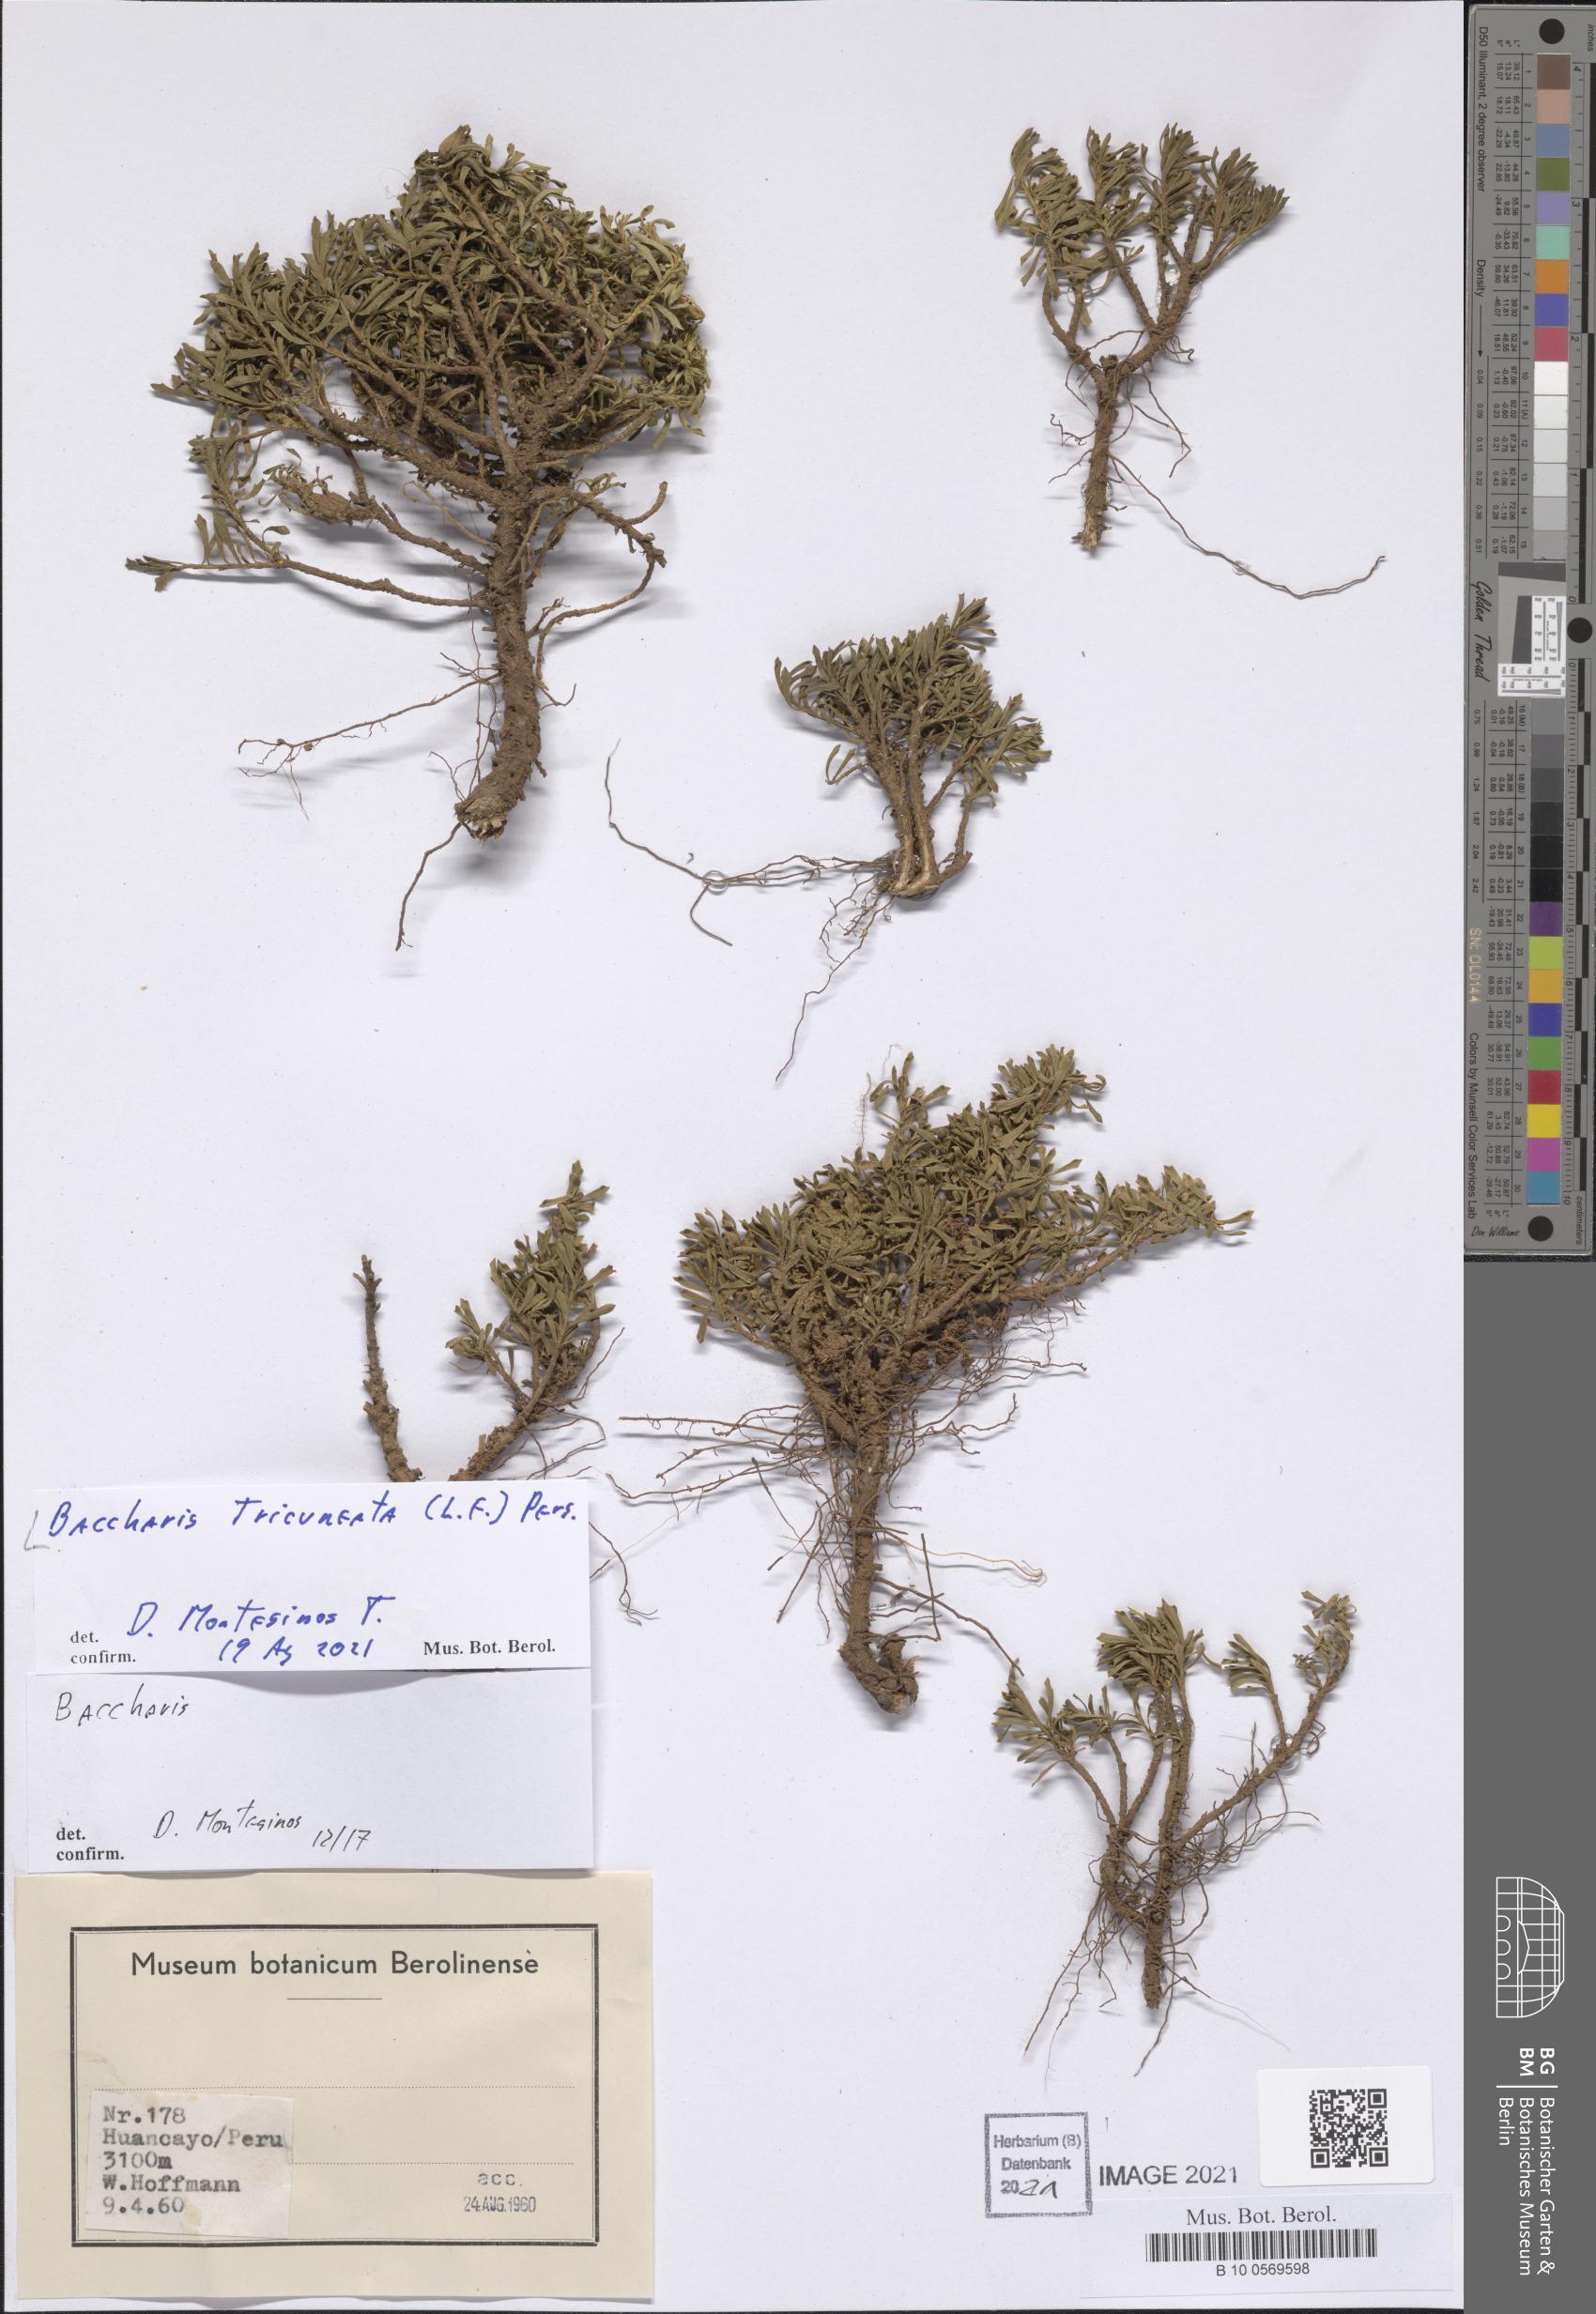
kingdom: Plantae
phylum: Tracheophyta
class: Magnoliopsida
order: Asterales
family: Asteraceae
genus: Baccharis
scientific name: Baccharis tricuneata
